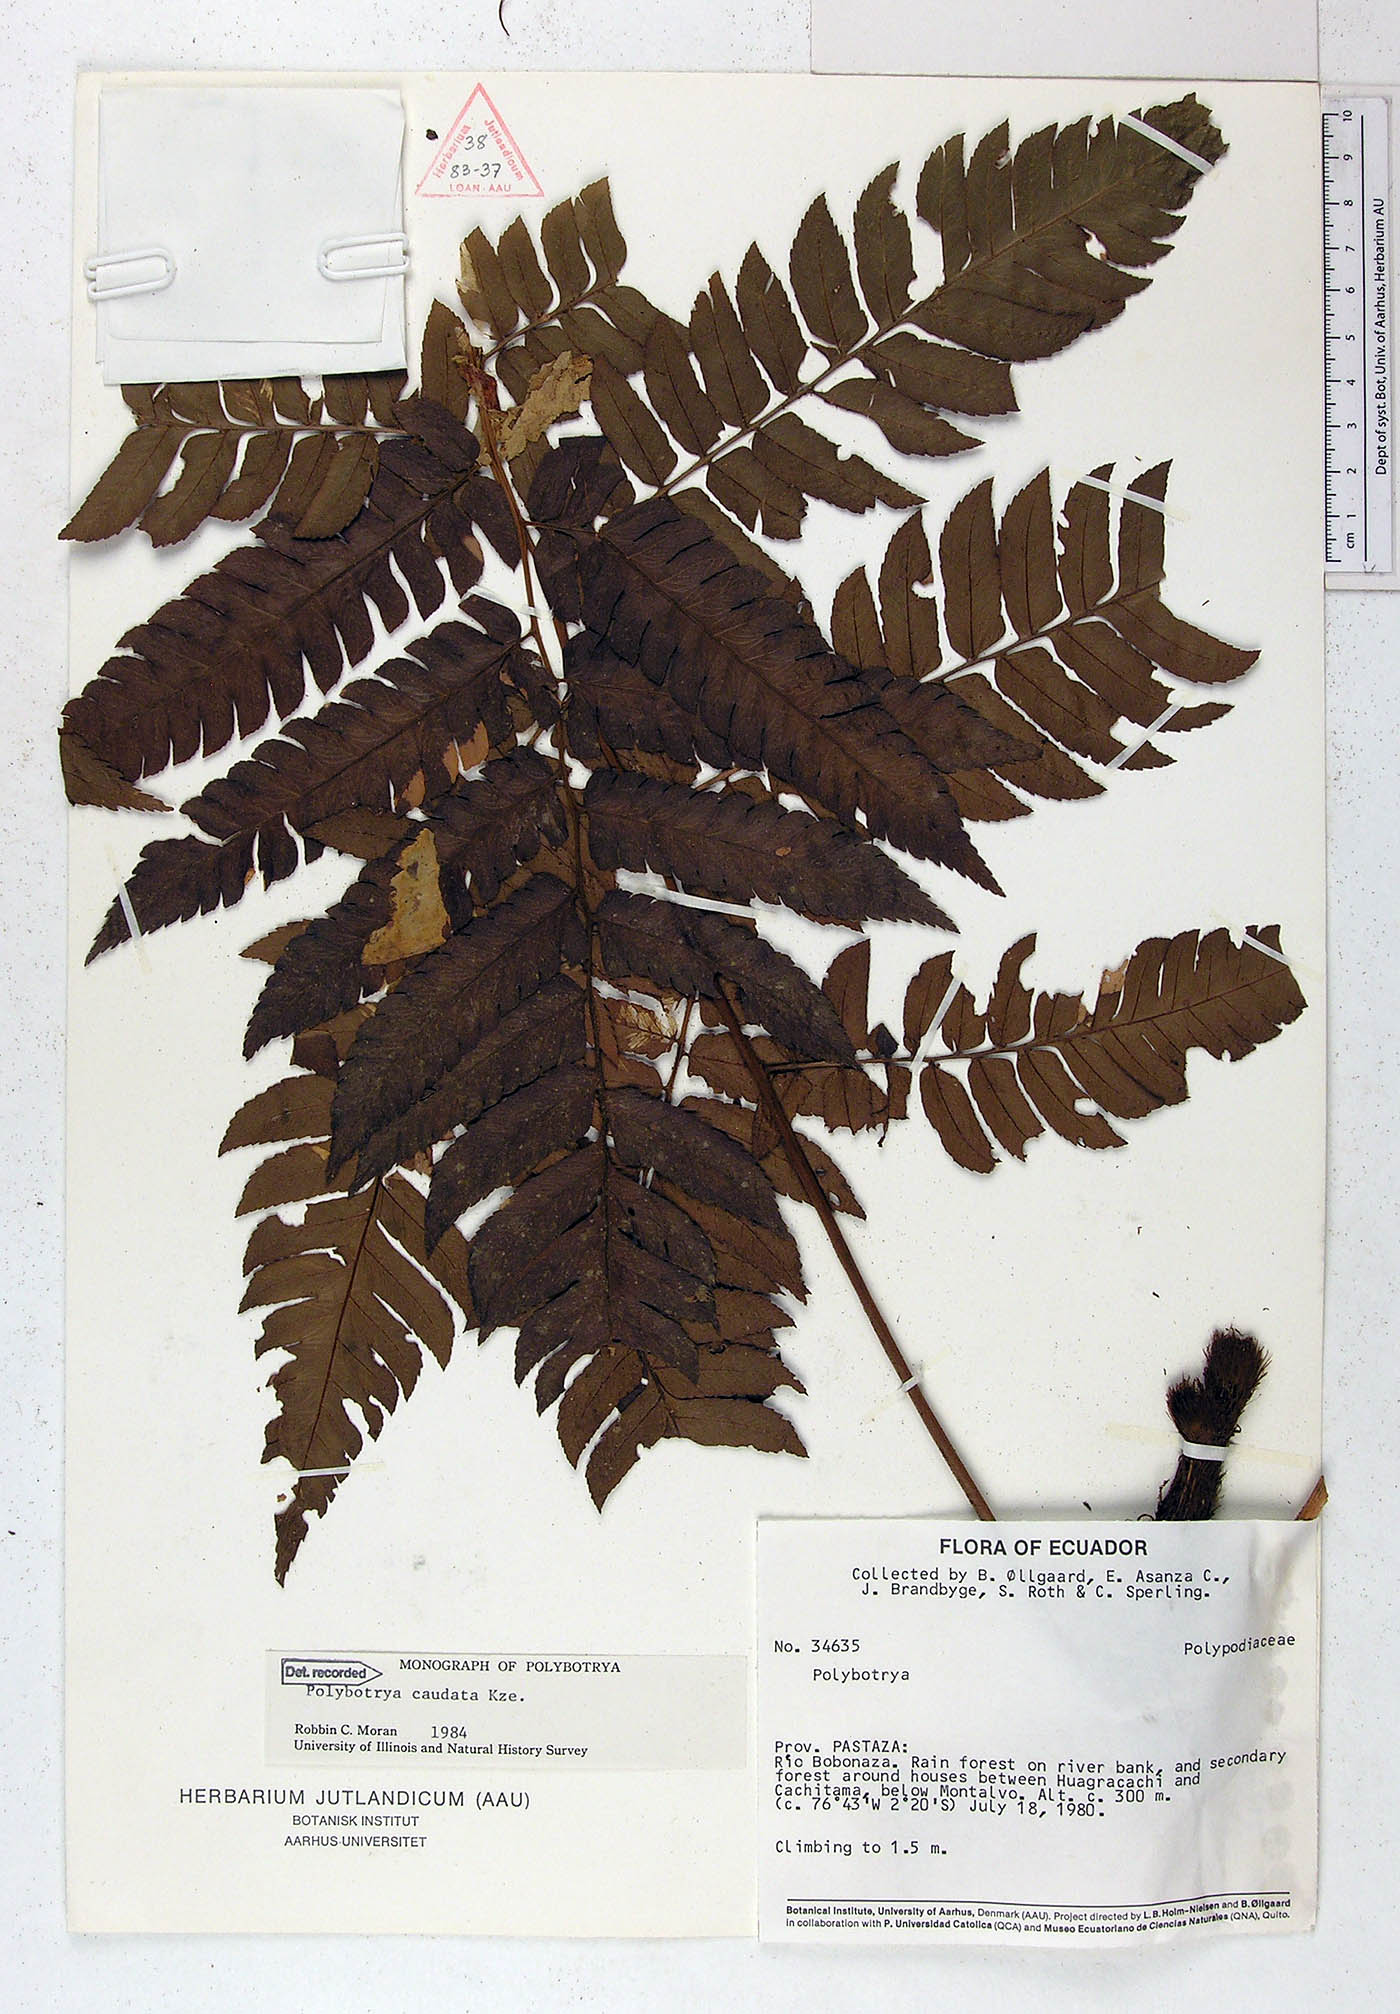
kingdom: Plantae
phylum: Tracheophyta
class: Polypodiopsida
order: Polypodiales
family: Dryopteridaceae
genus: Polybotrya
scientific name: Polybotrya caudata
